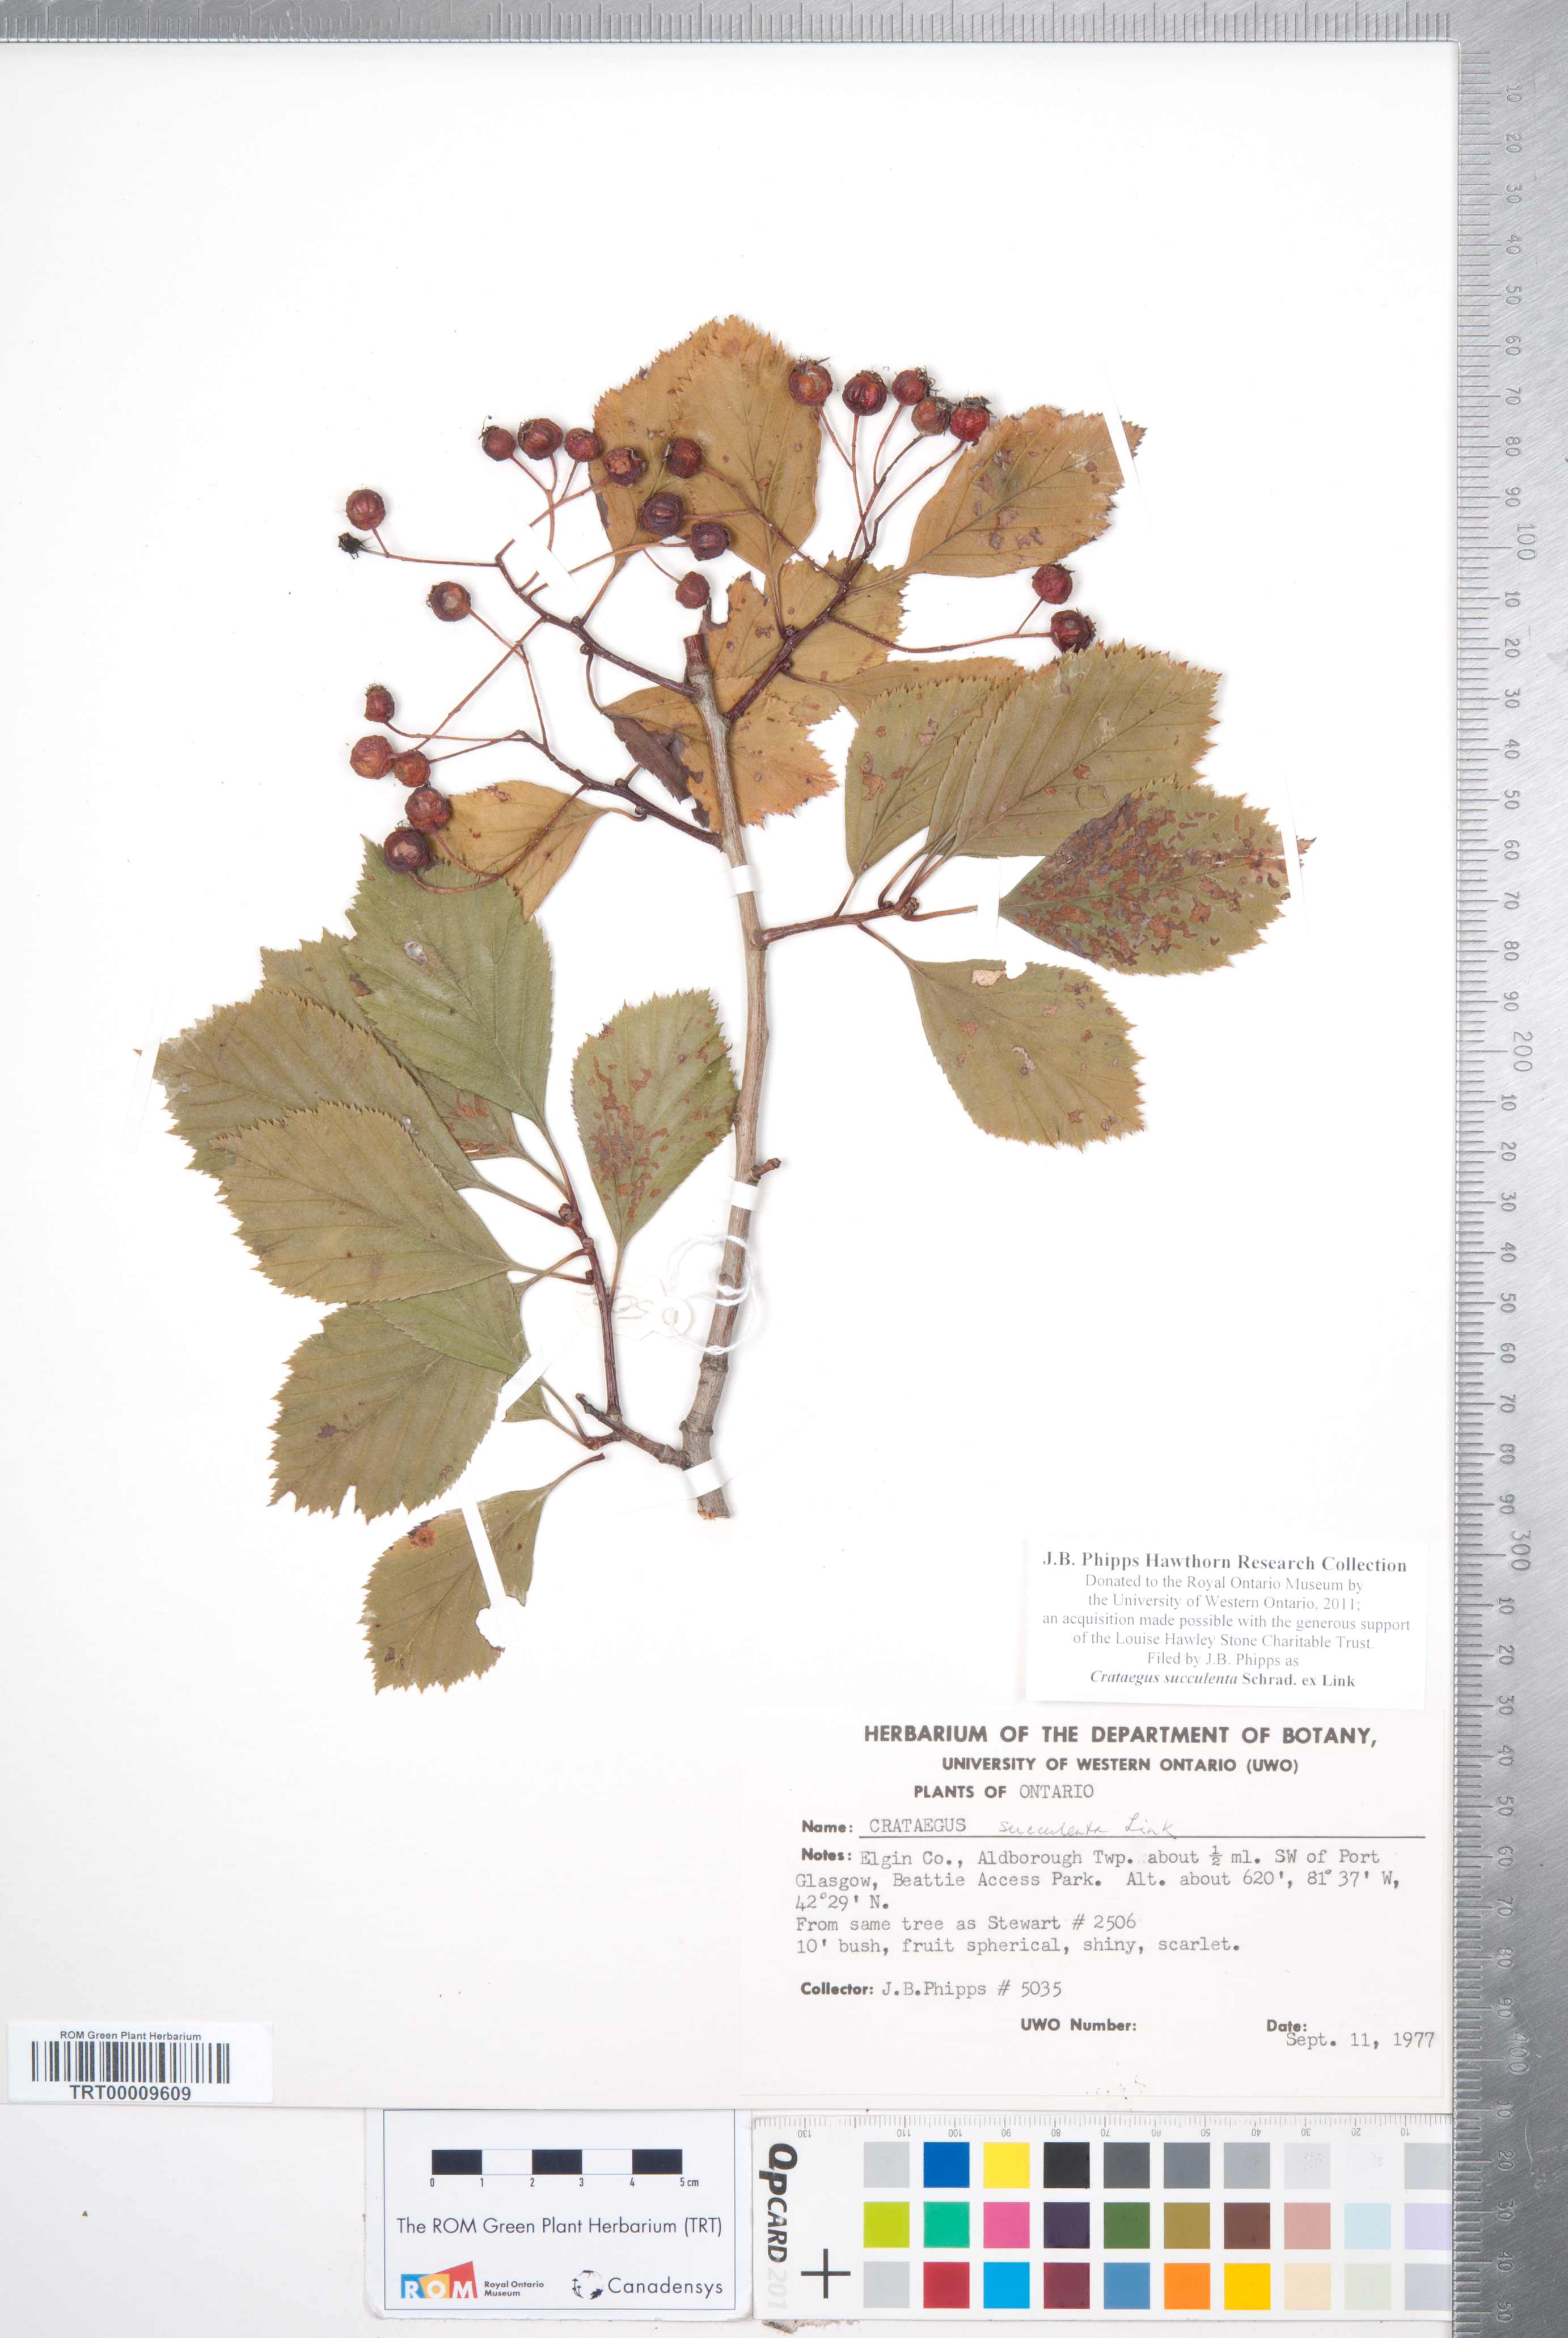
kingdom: Plantae
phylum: Tracheophyta
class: Magnoliopsida
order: Rosales
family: Rosaceae
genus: Crataegus
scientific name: Crataegus succulenta
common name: Fleshy hawthorn
